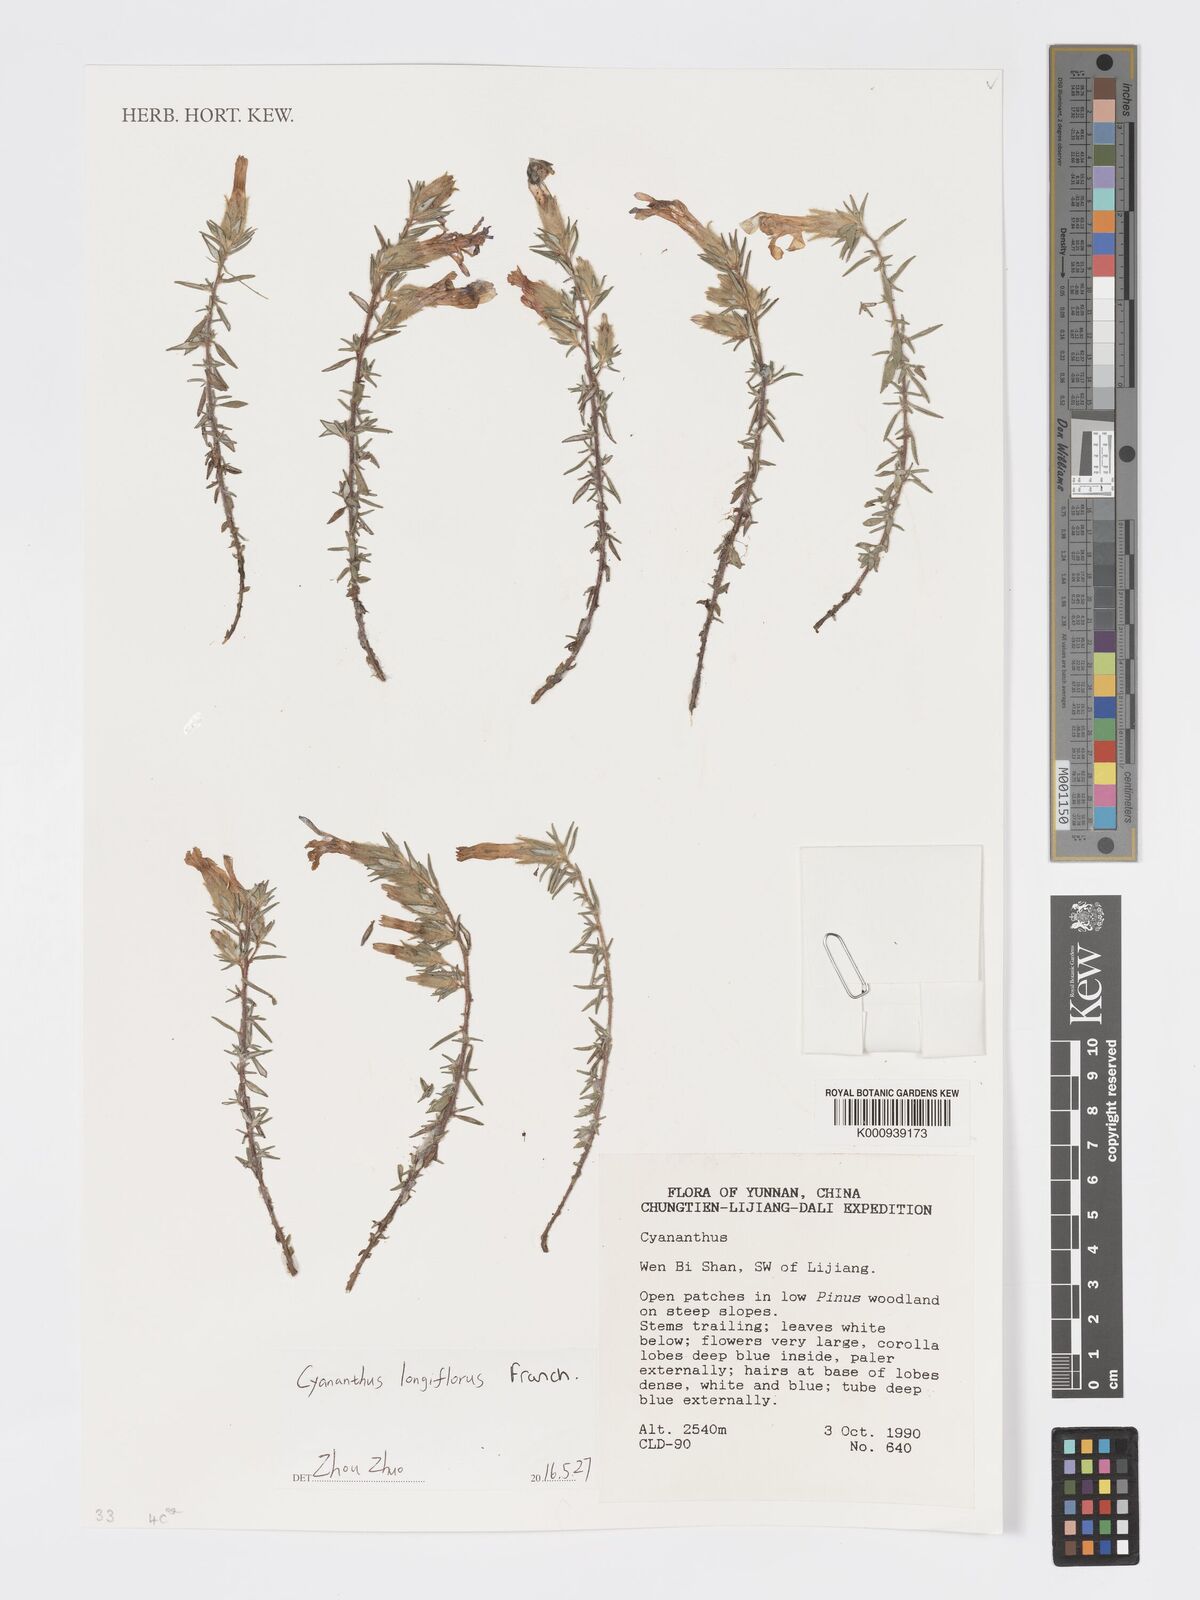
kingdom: Plantae
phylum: Tracheophyta
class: Magnoliopsida
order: Asterales
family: Campanulaceae
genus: Cyananthus
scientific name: Cyananthus longiflorus
